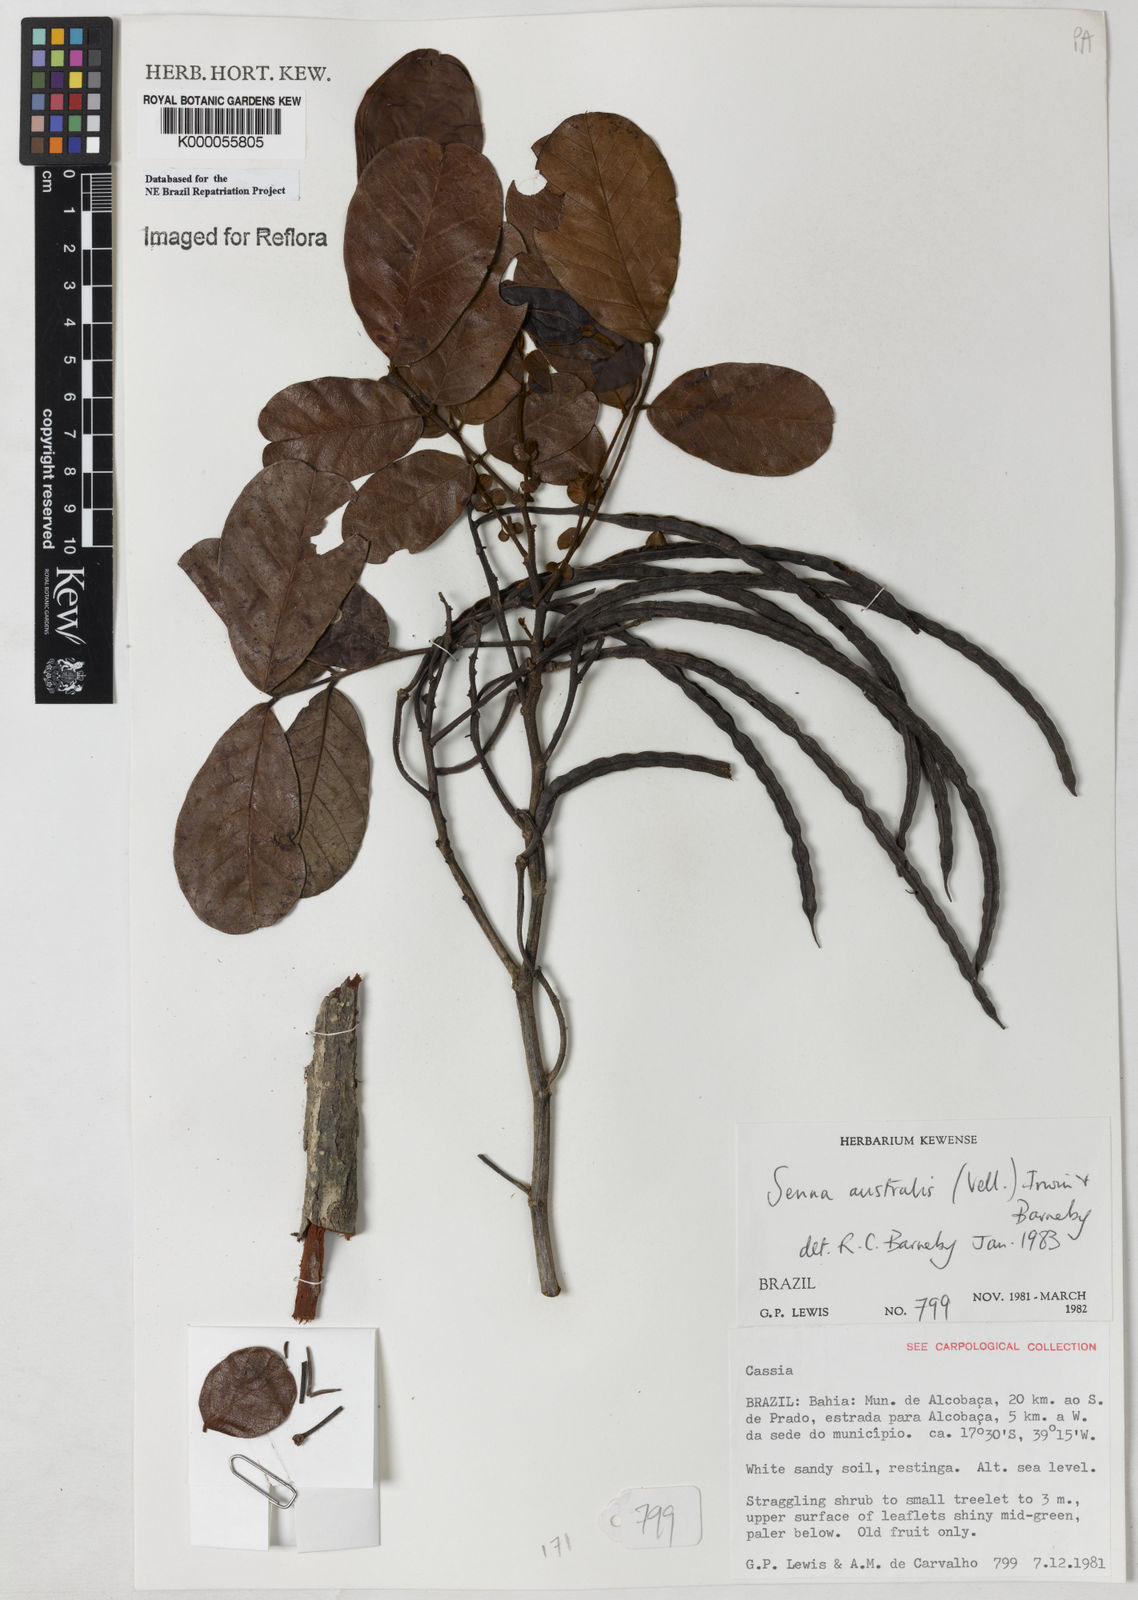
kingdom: Plantae
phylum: Tracheophyta
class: Magnoliopsida
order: Fabales
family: Fabaceae
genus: Senna
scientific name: Senna appendiculata
